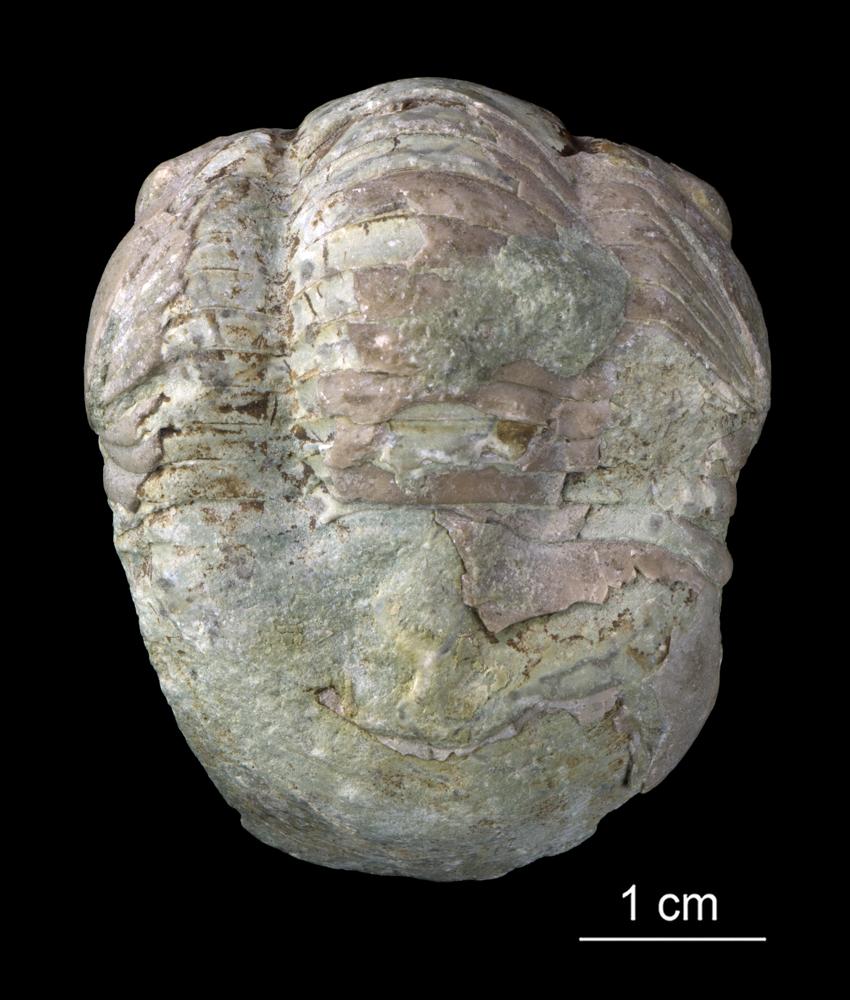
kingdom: Animalia
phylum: Arthropoda
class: Trilobita
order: Corynexochida
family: Illaenidae
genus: Illaenus
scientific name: Illaenus crassicauda
